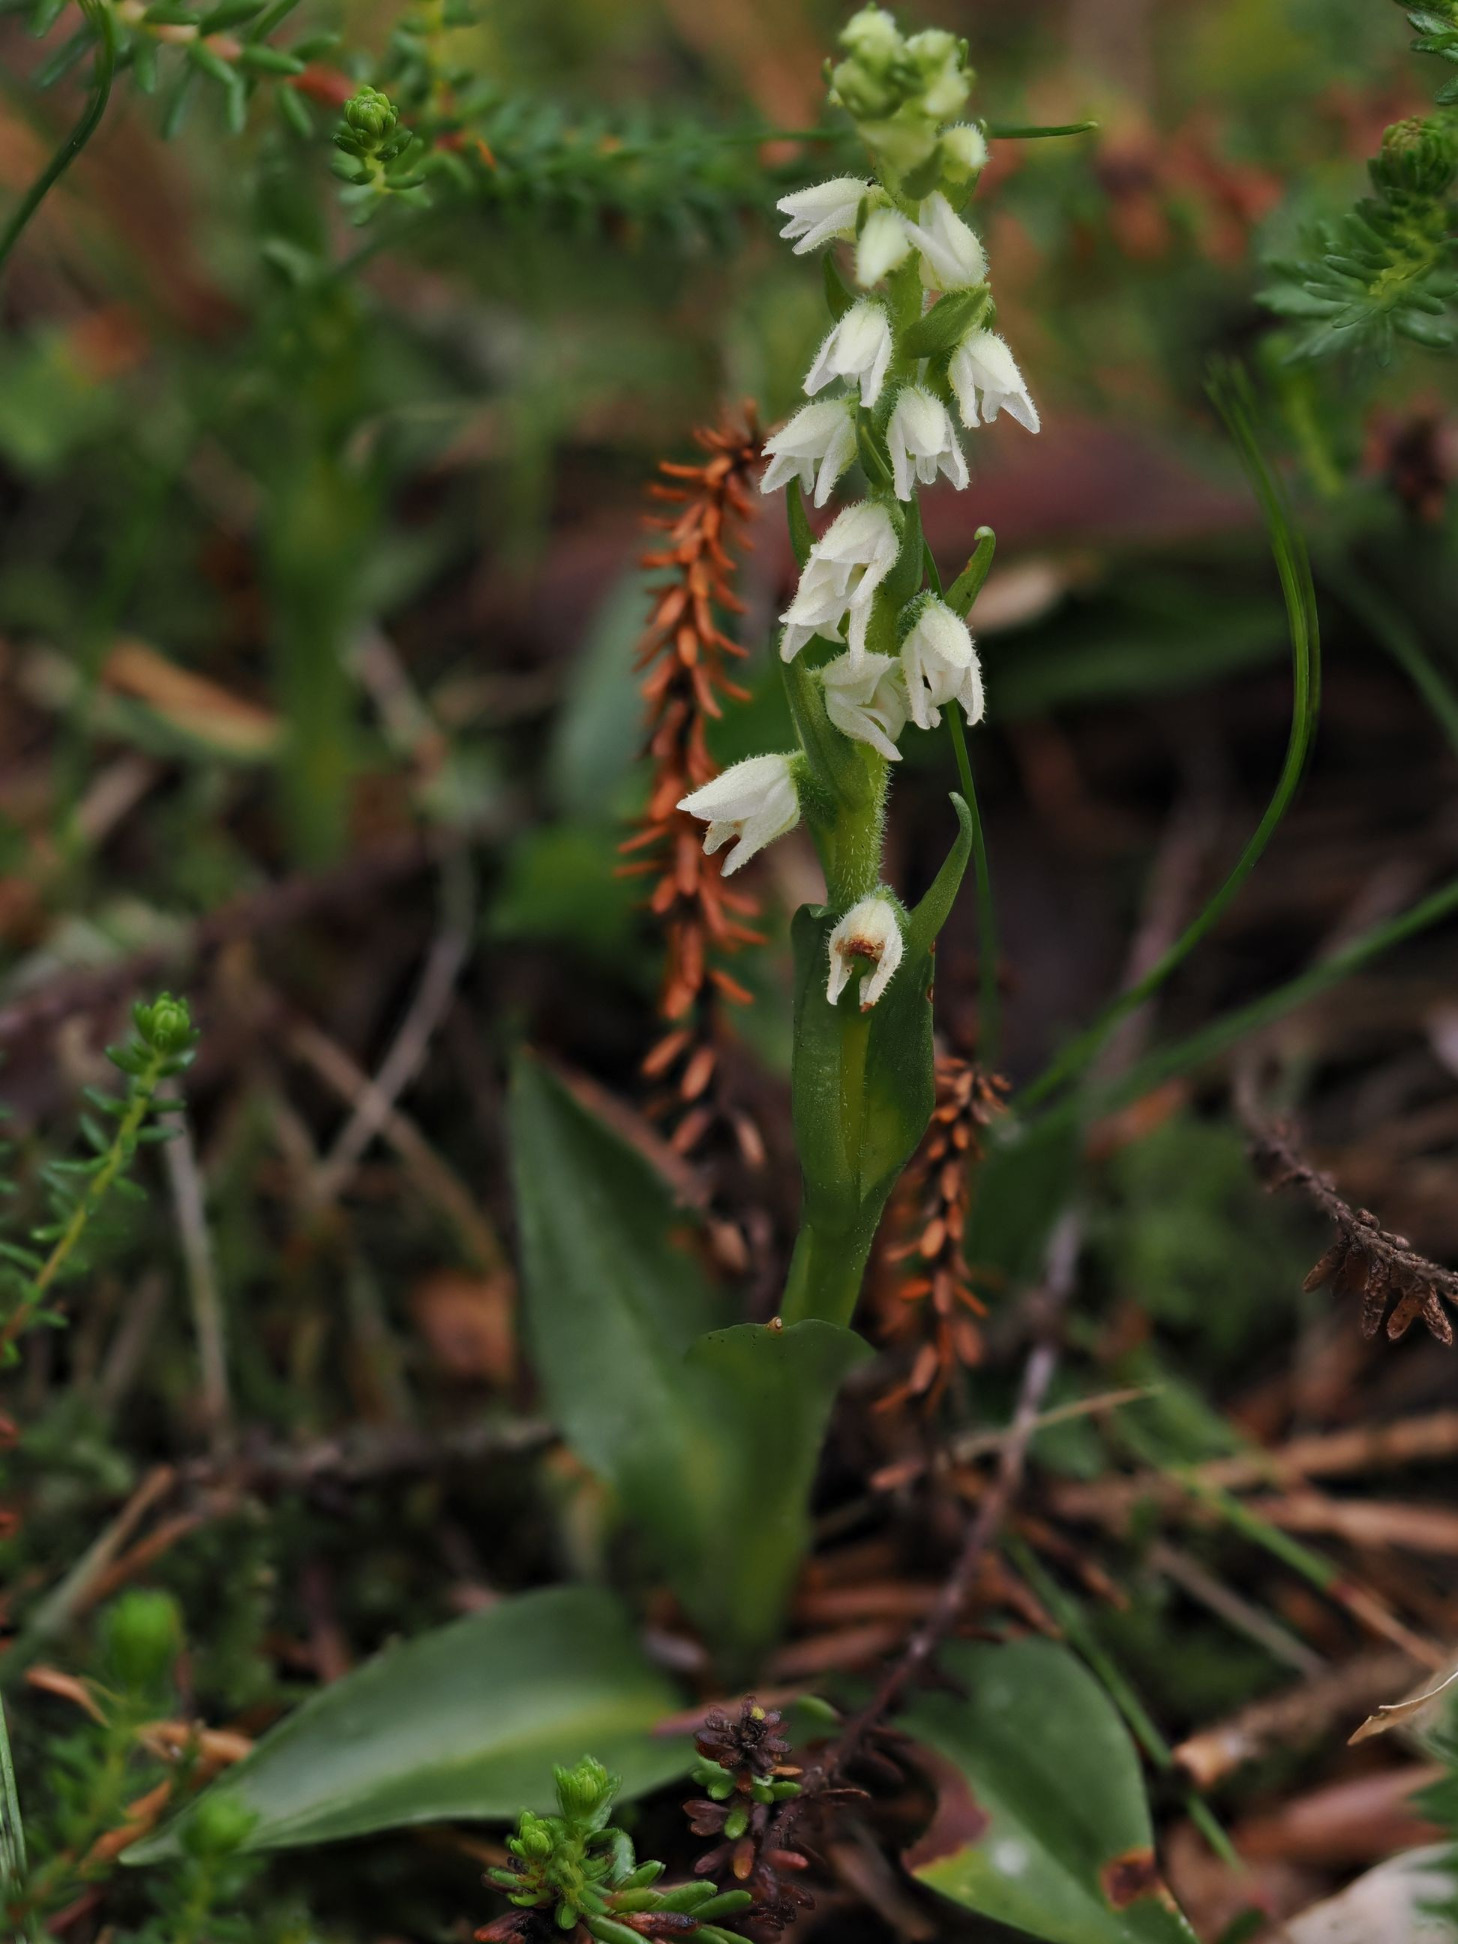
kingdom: Plantae
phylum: Tracheophyta
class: Liliopsida
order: Asparagales
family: Orchidaceae
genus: Goodyera
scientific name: Goodyera repens
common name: Knærod
